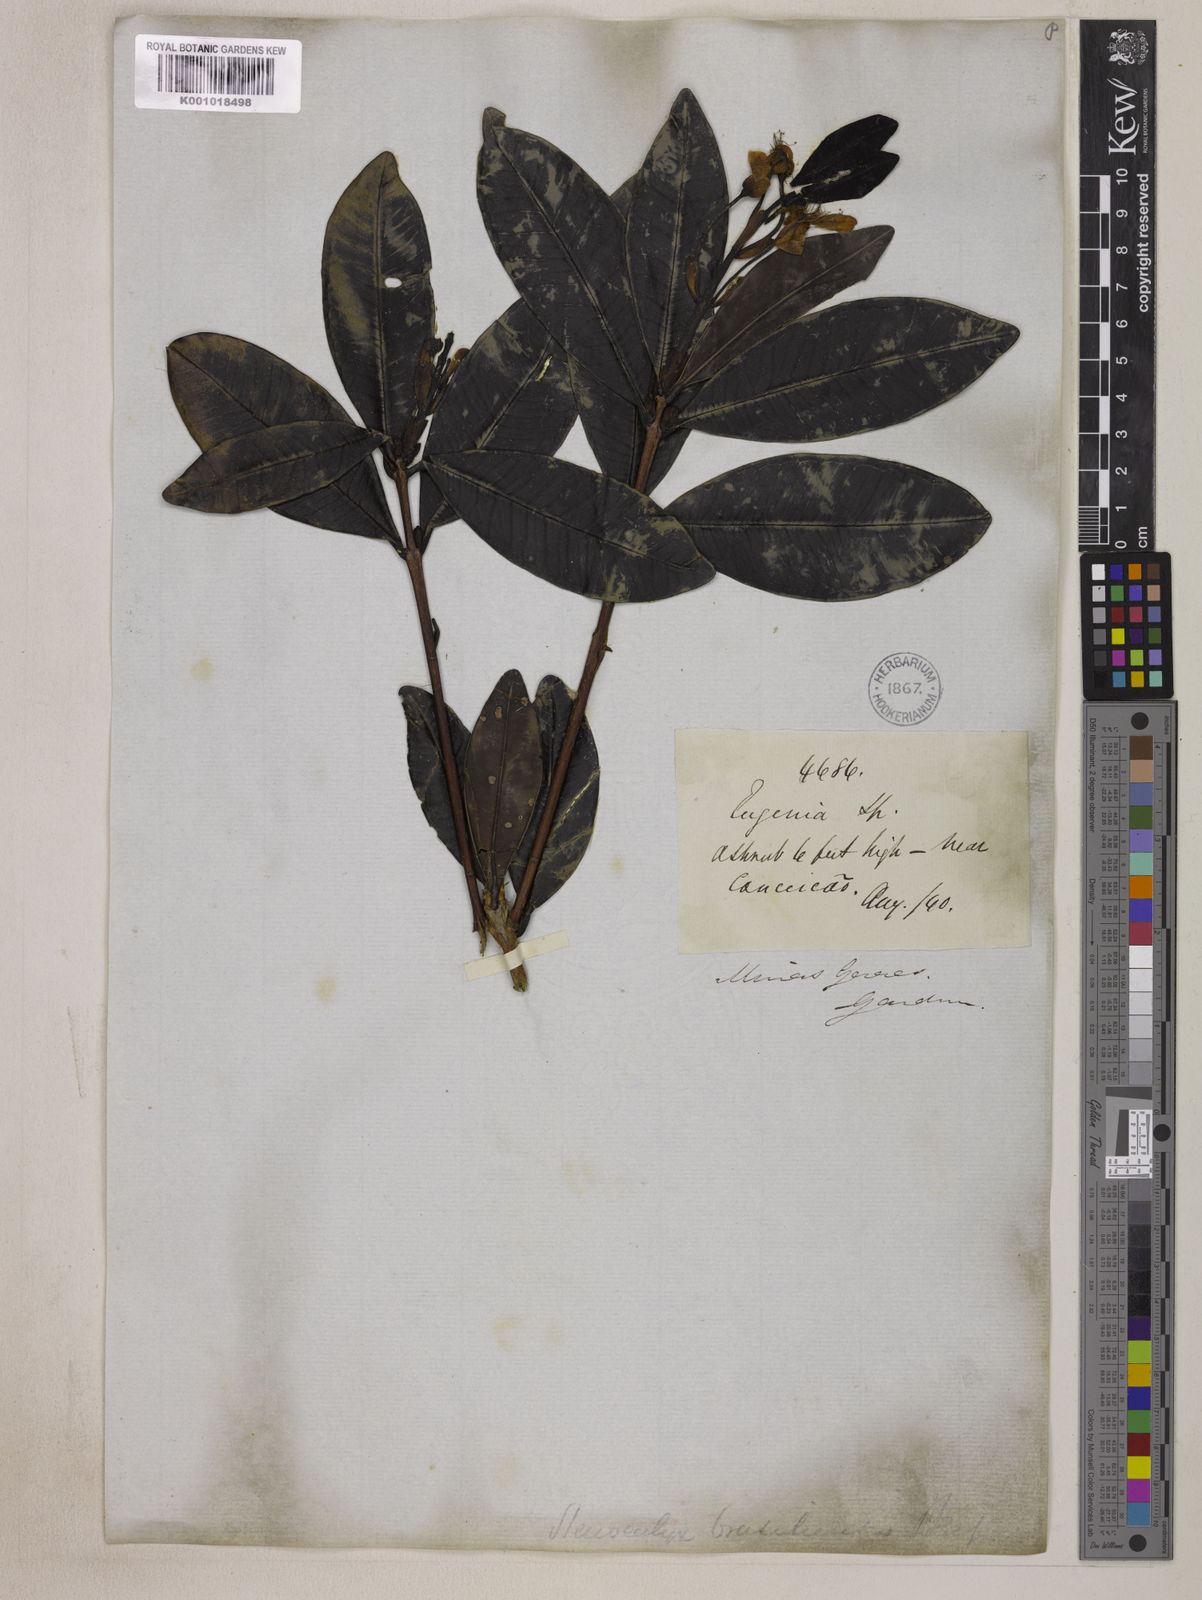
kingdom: Plantae
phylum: Tracheophyta
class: Magnoliopsida
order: Myrtales
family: Myrtaceae
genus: Eugenia
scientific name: Eugenia brasiliensis
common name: Grumichama
